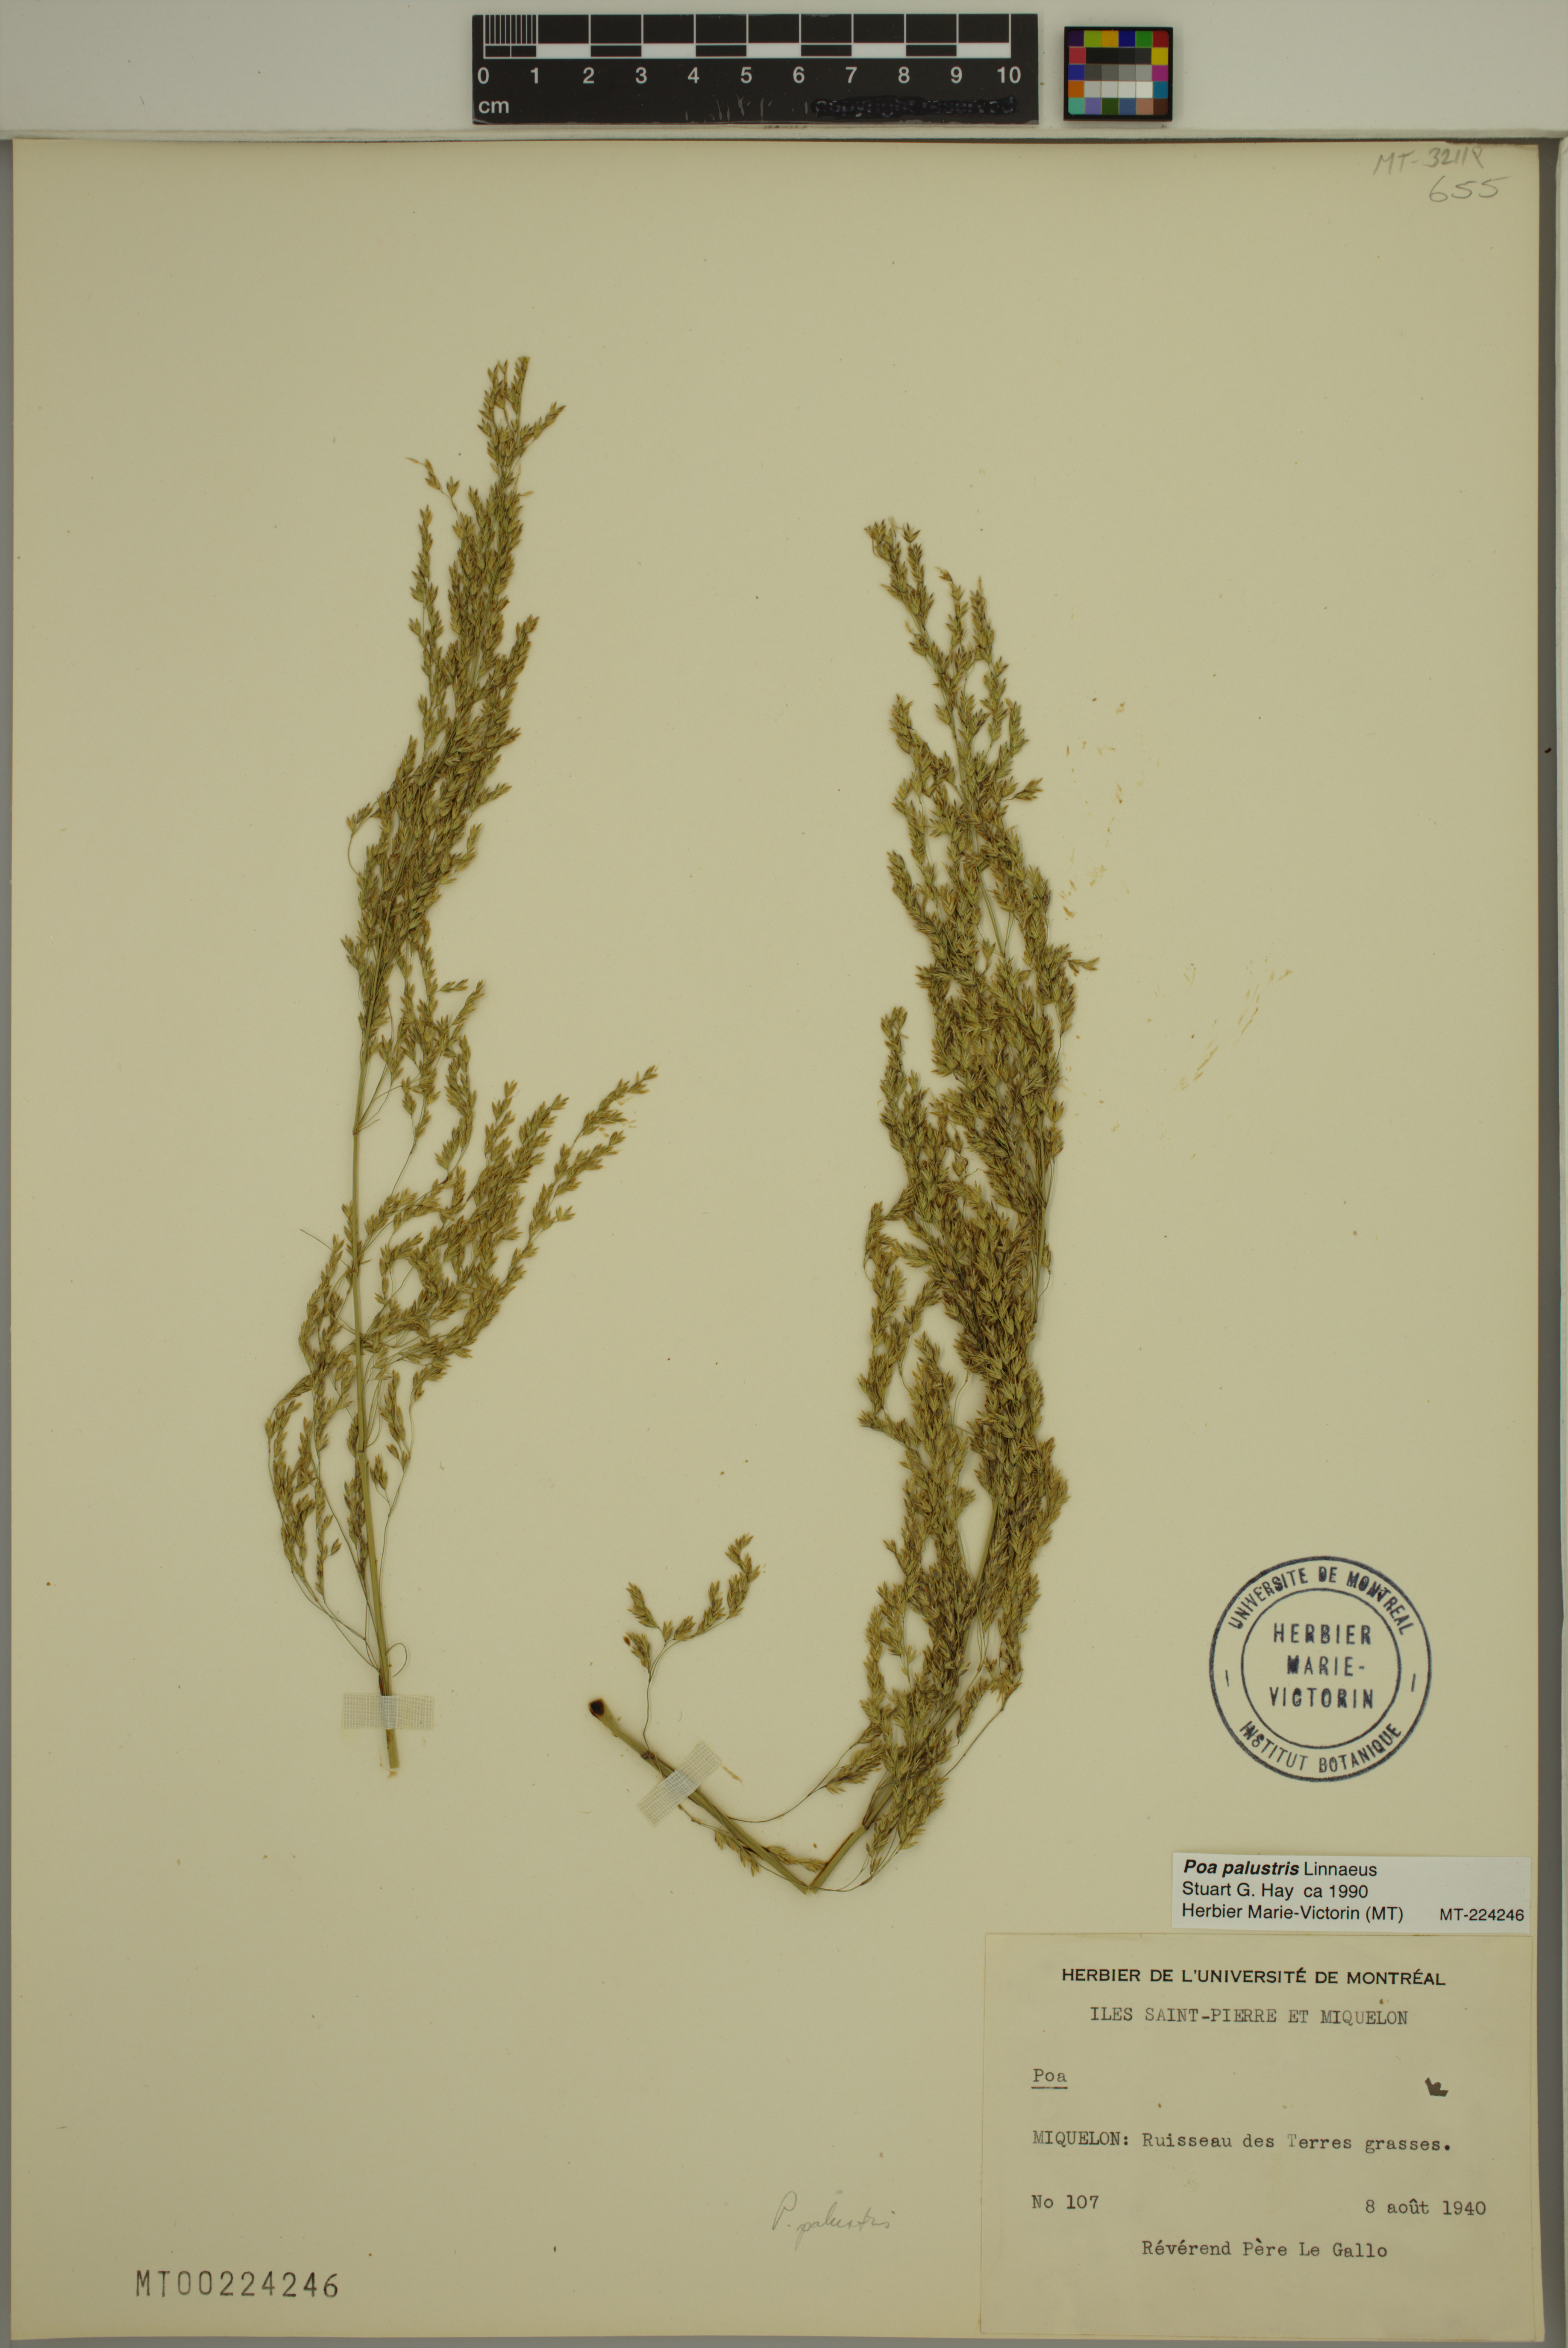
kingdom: Plantae
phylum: Tracheophyta
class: Liliopsida
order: Poales
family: Poaceae
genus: Poa
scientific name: Poa palustris
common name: Swamp meadow-grass
